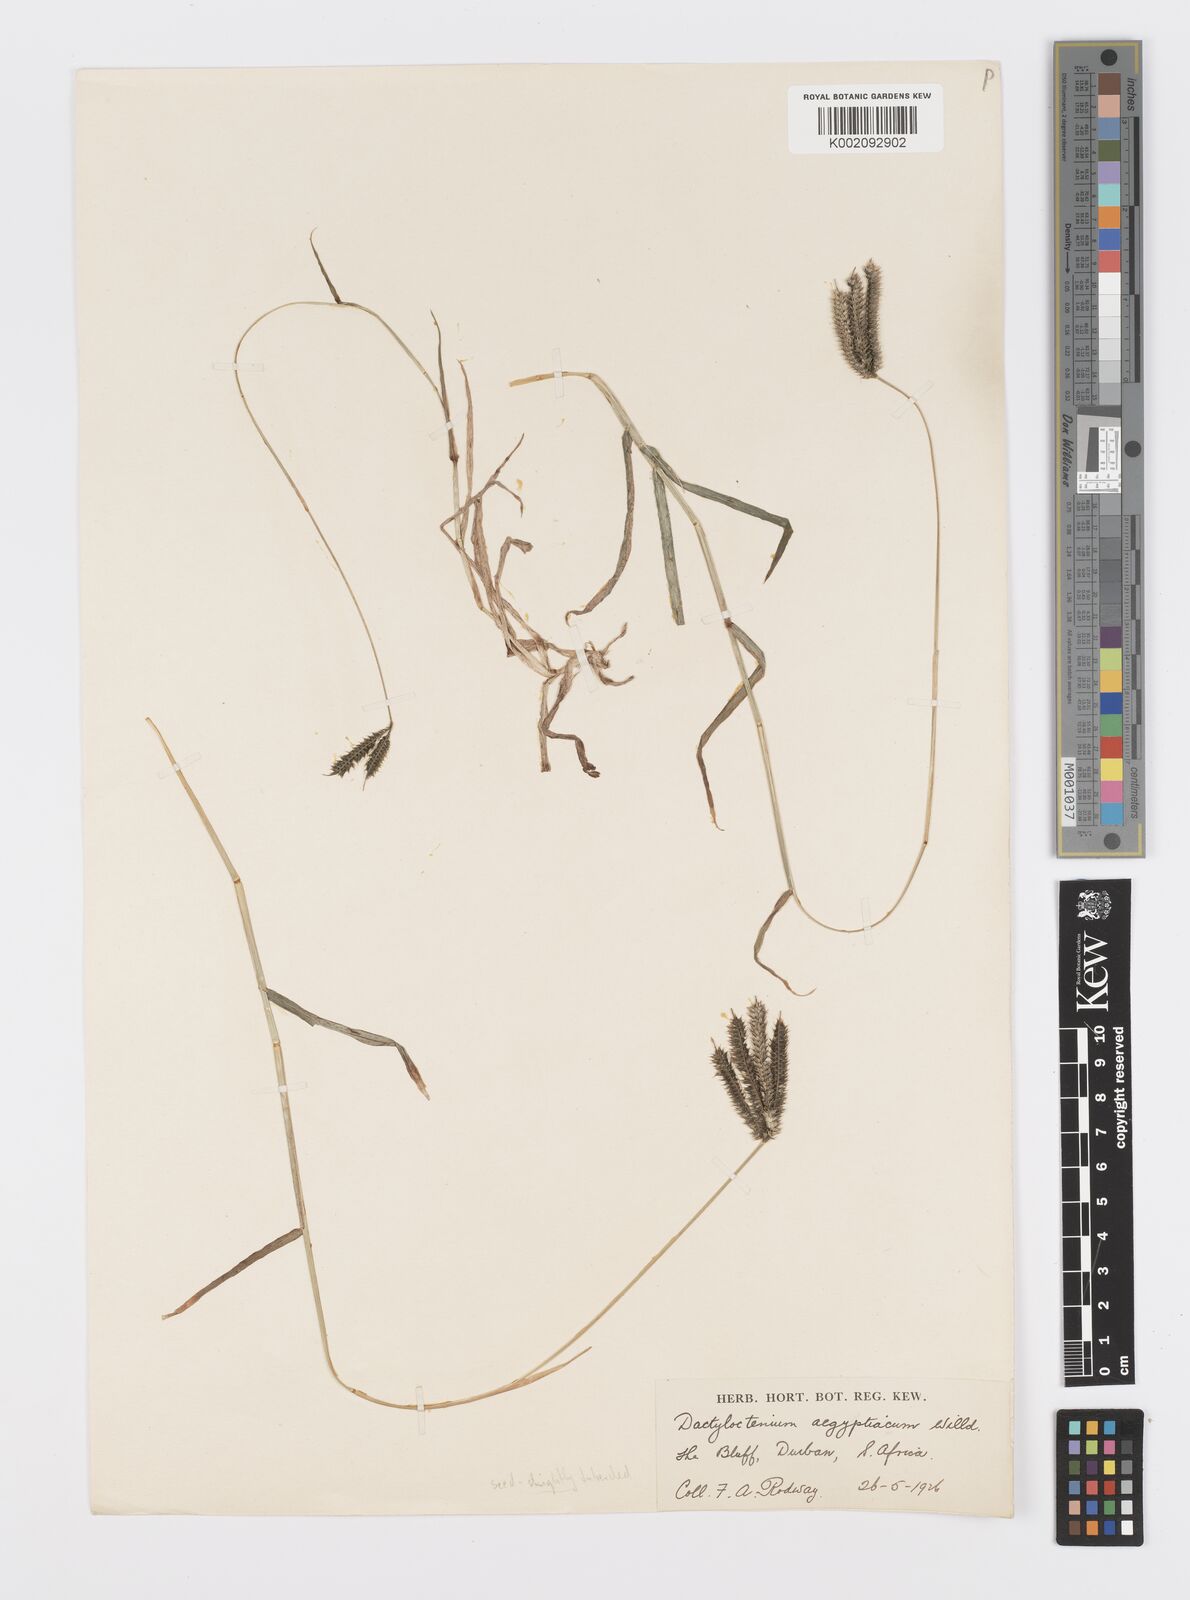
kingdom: Plantae
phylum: Tracheophyta
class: Liliopsida
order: Poales
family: Poaceae
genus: Dactyloctenium
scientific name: Dactyloctenium australe
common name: Durban grass
